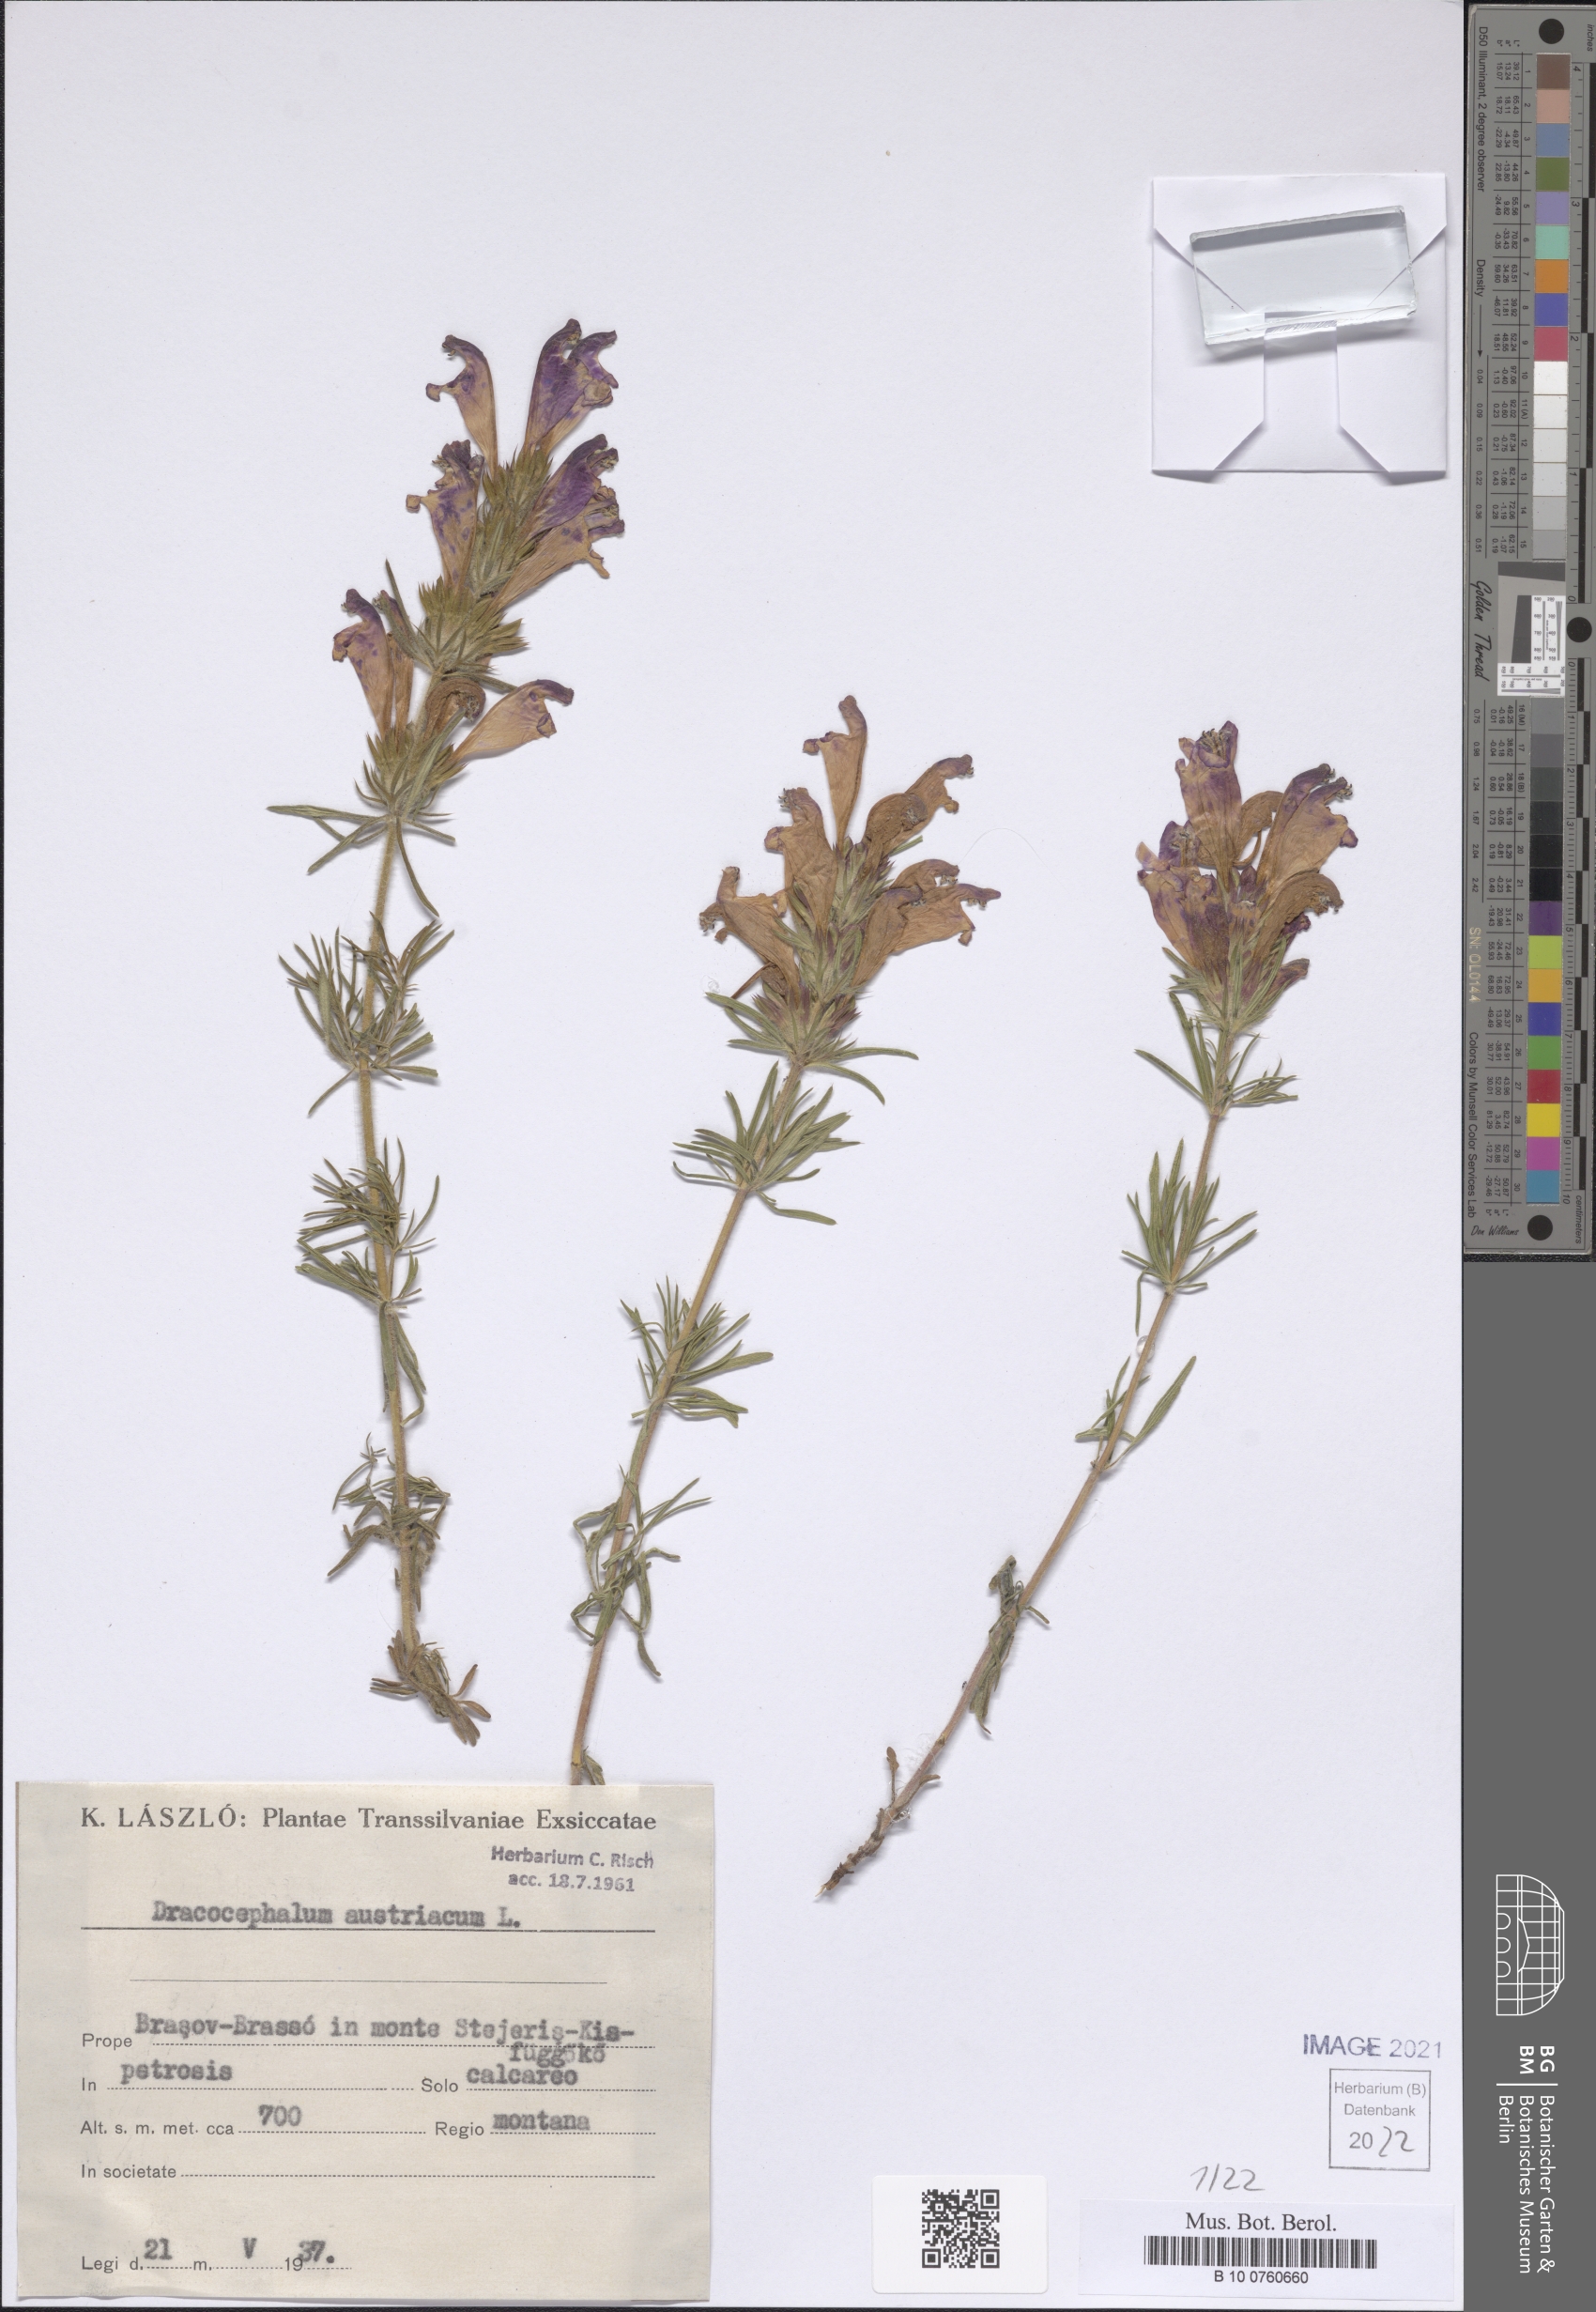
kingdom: Plantae
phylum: Tracheophyta
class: Magnoliopsida
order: Lamiales
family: Lamiaceae
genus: Dracocephalum
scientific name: Dracocephalum austriacum
